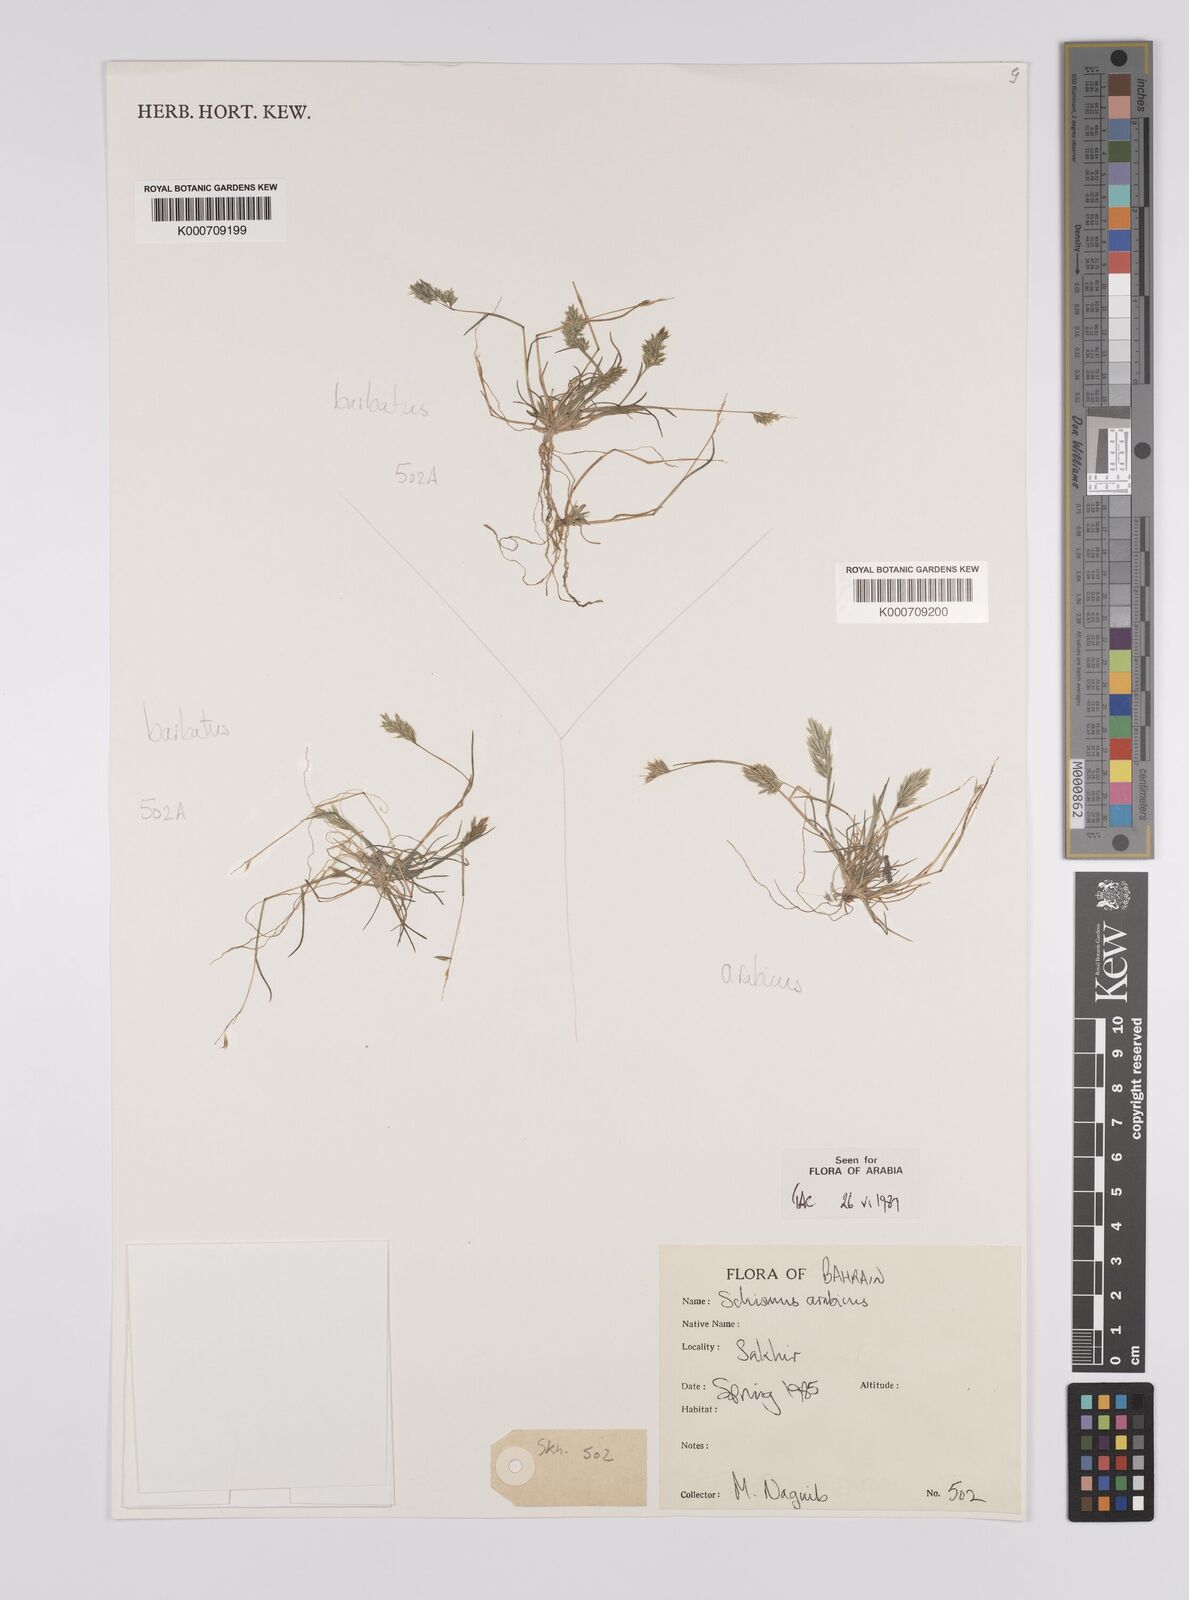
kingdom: Plantae
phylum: Tracheophyta
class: Liliopsida
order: Poales
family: Poaceae
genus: Schismus
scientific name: Schismus barbatus
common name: Kelch-grass
